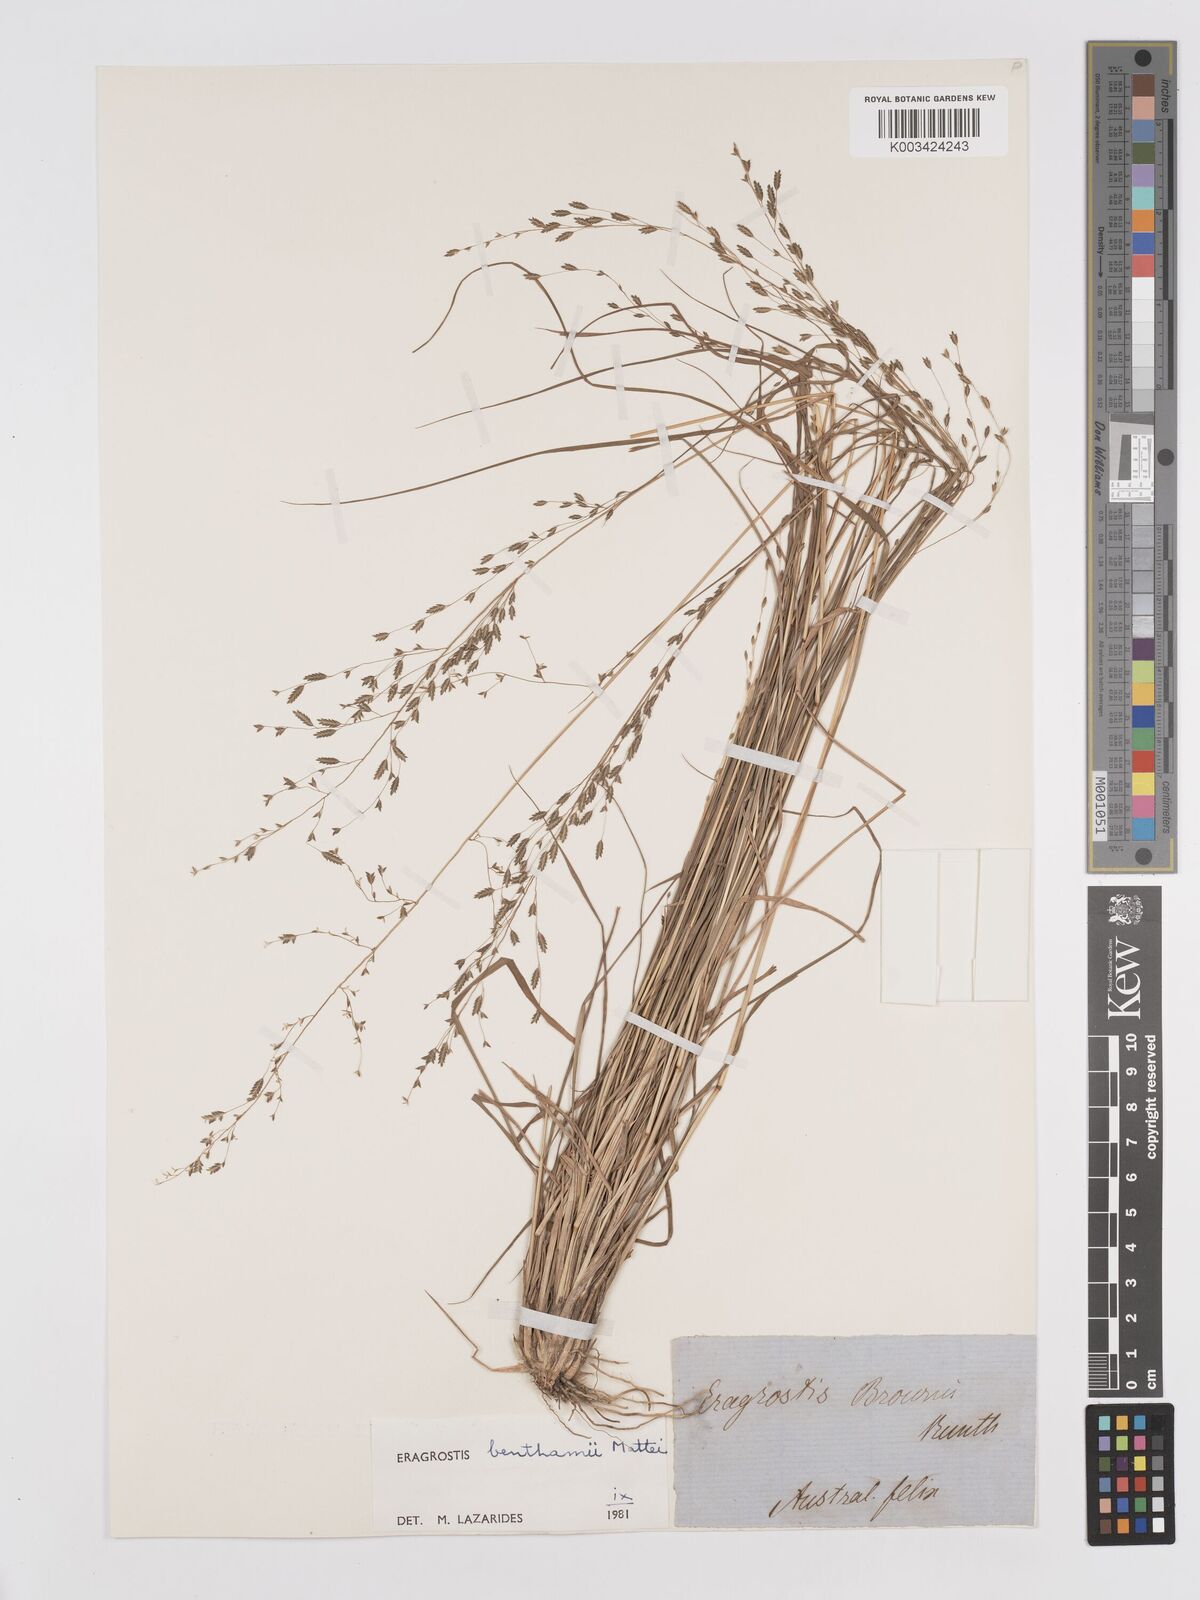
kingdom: Plantae
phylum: Tracheophyta
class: Liliopsida
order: Poales
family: Poaceae
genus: Eragrostis
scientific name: Eragrostis brownii
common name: Lovegrass
